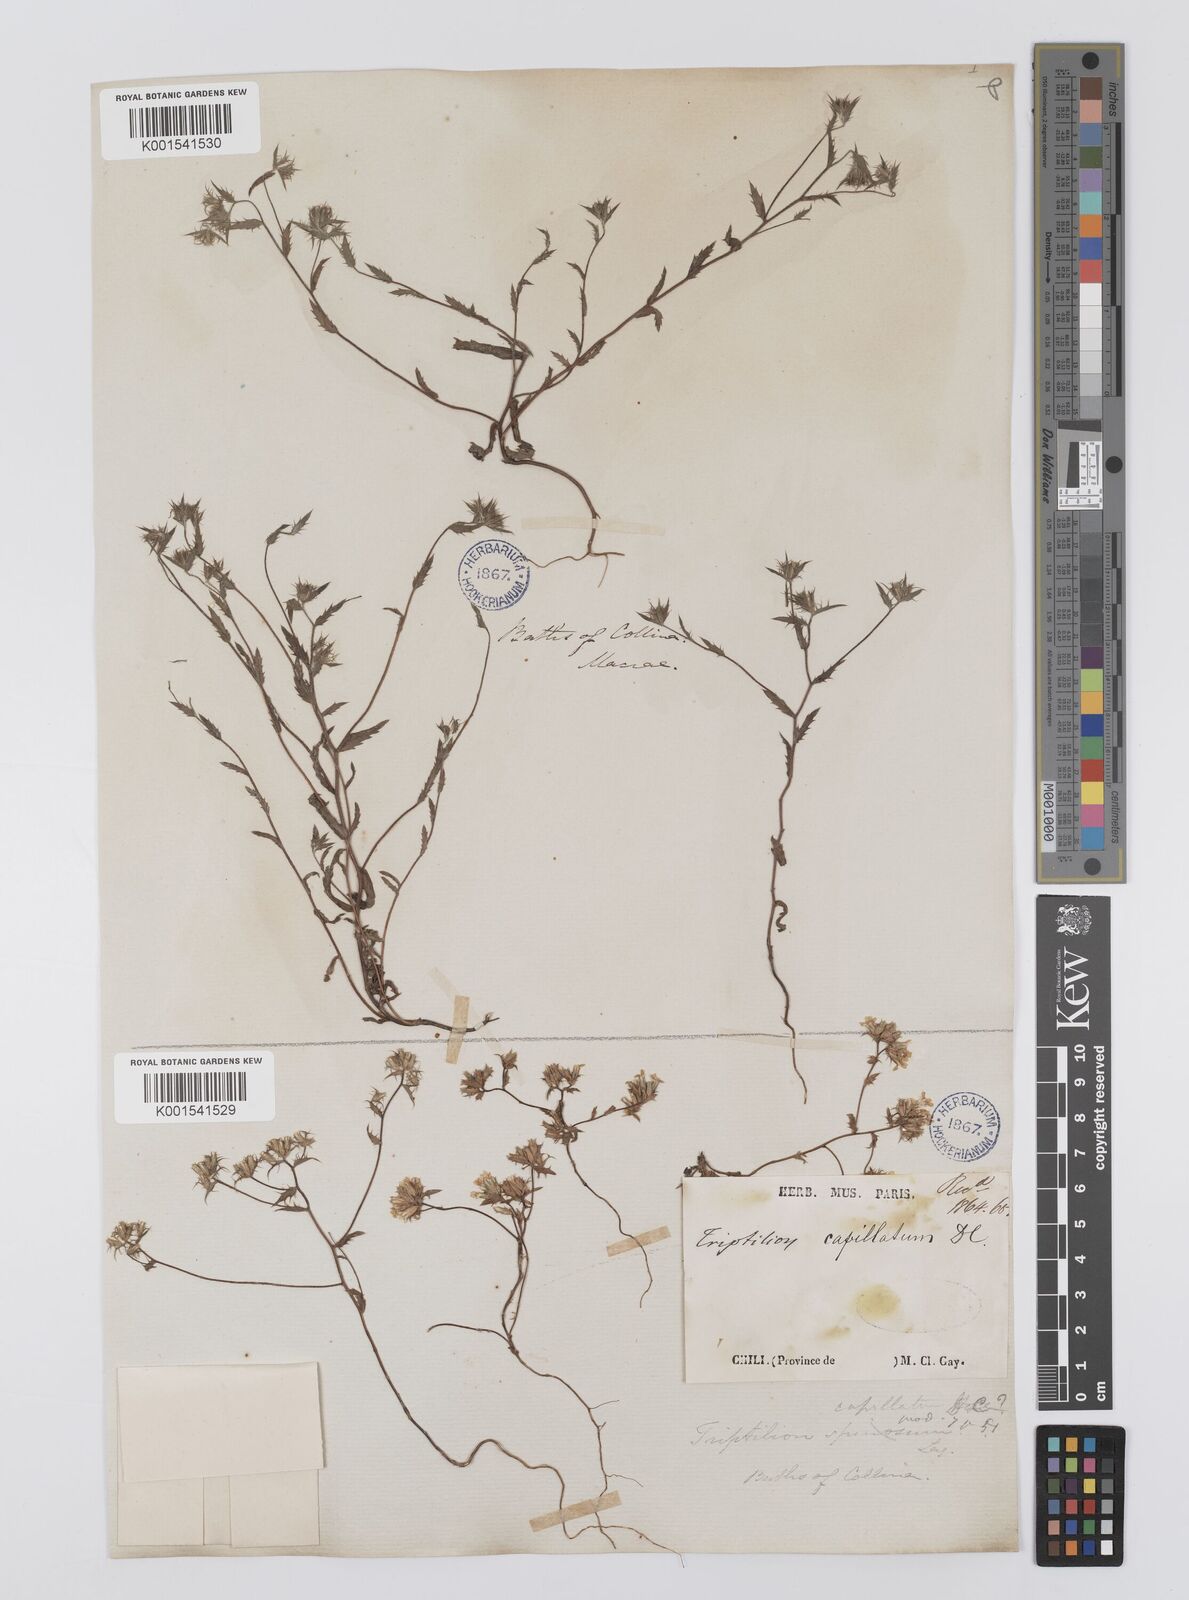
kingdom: Plantae
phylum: Tracheophyta
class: Magnoliopsida
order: Asterales
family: Asteraceae
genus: Triptilion
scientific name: Triptilion capillatum
